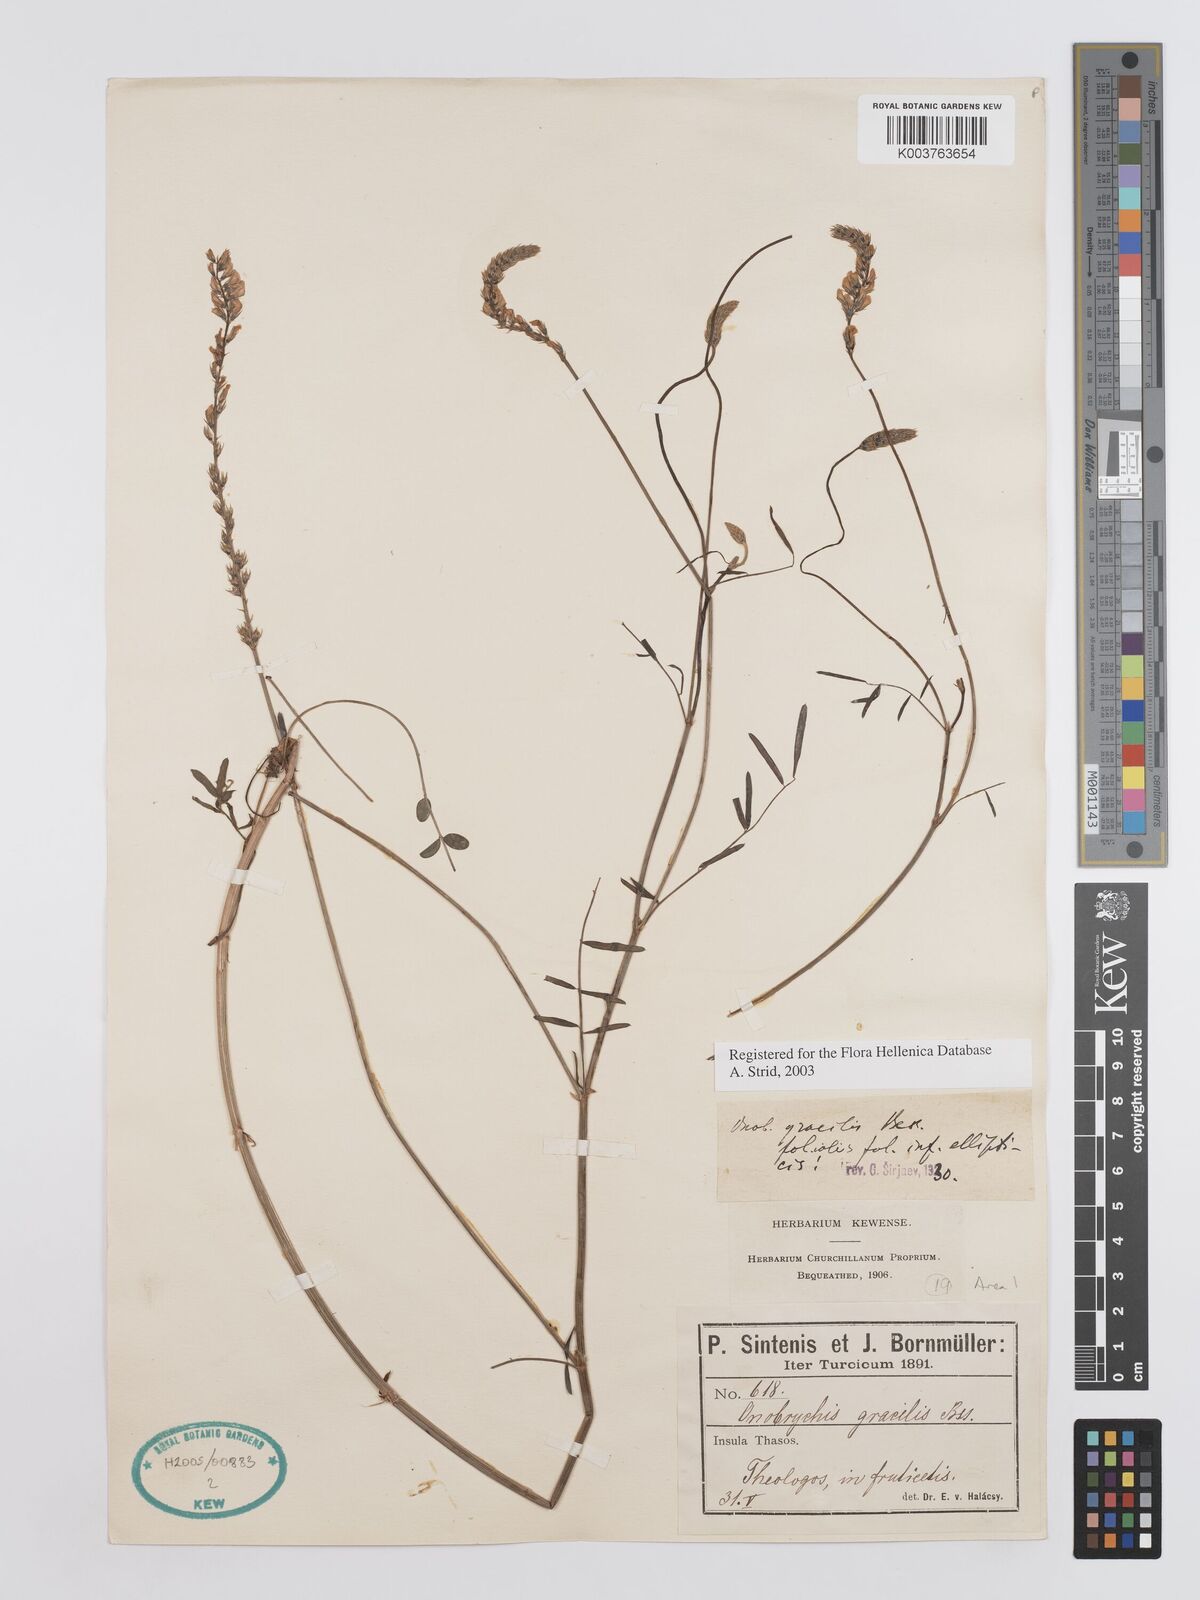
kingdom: Plantae
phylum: Tracheophyta
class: Magnoliopsida
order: Fabales
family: Fabaceae
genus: Onobrychis
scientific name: Onobrychis gracilis
